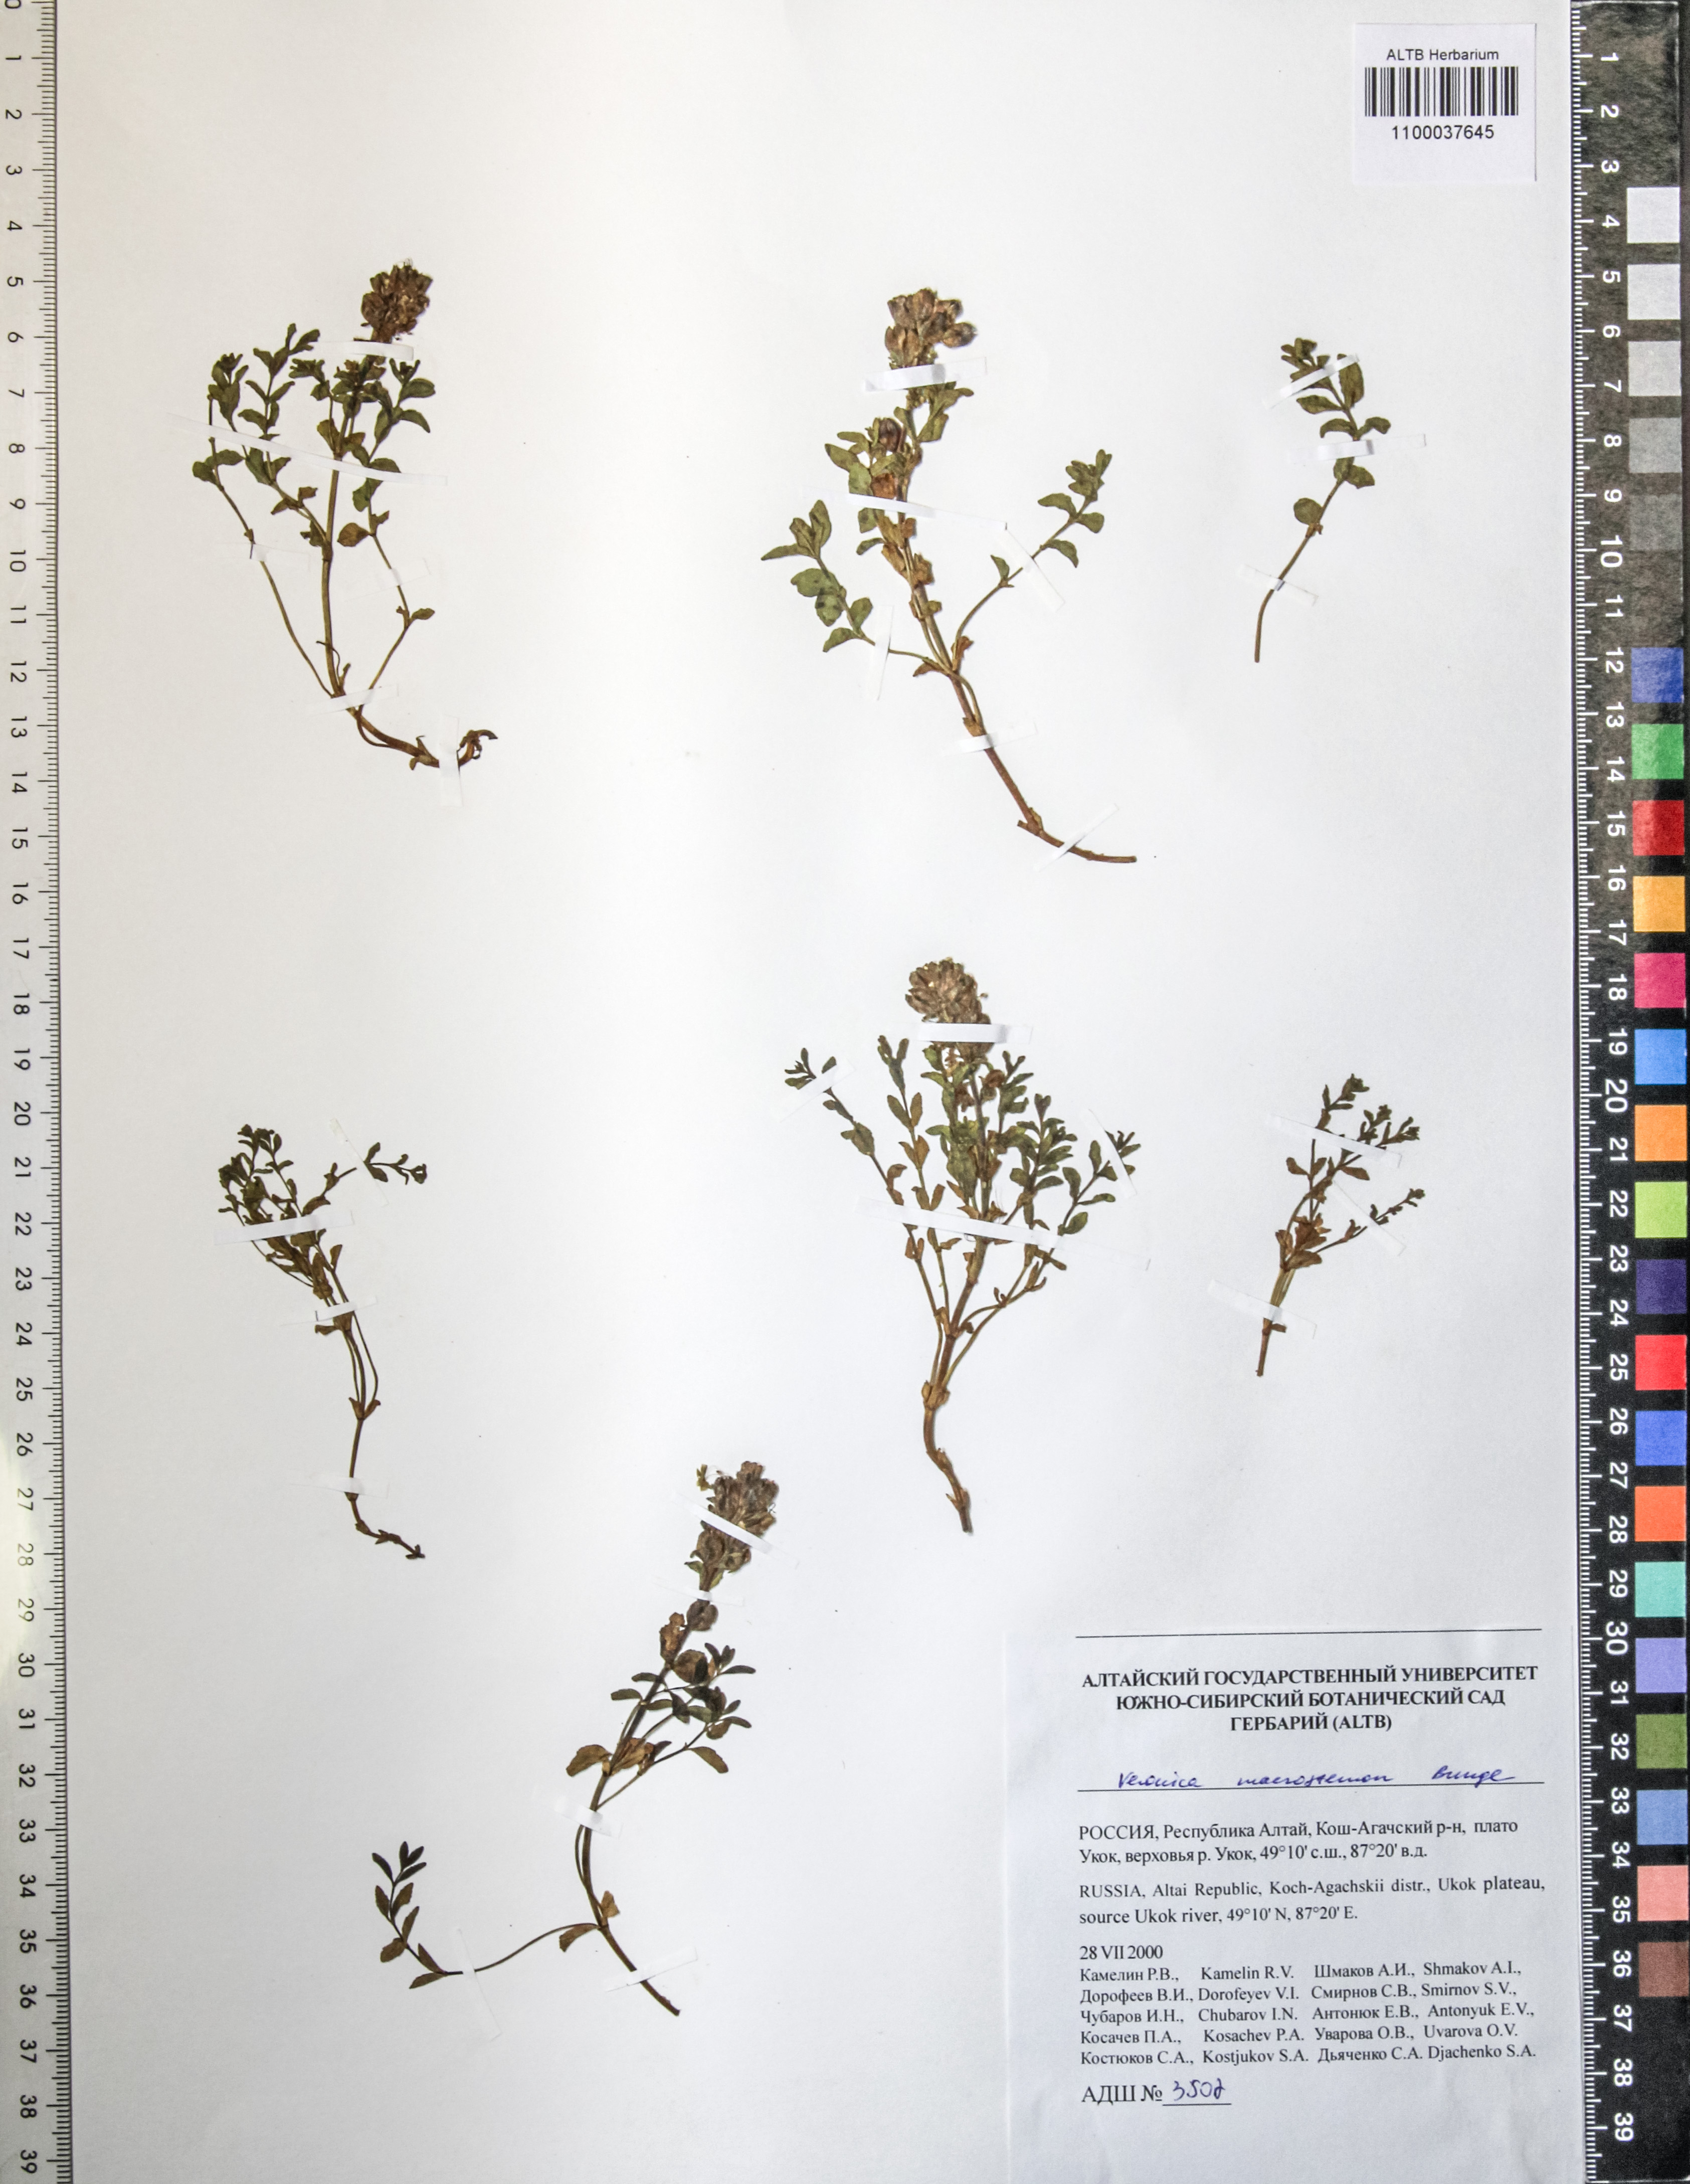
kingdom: Plantae
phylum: Tracheophyta
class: Magnoliopsida
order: Lamiales
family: Plantaginaceae
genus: Veronica
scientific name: Veronica macrostemon
